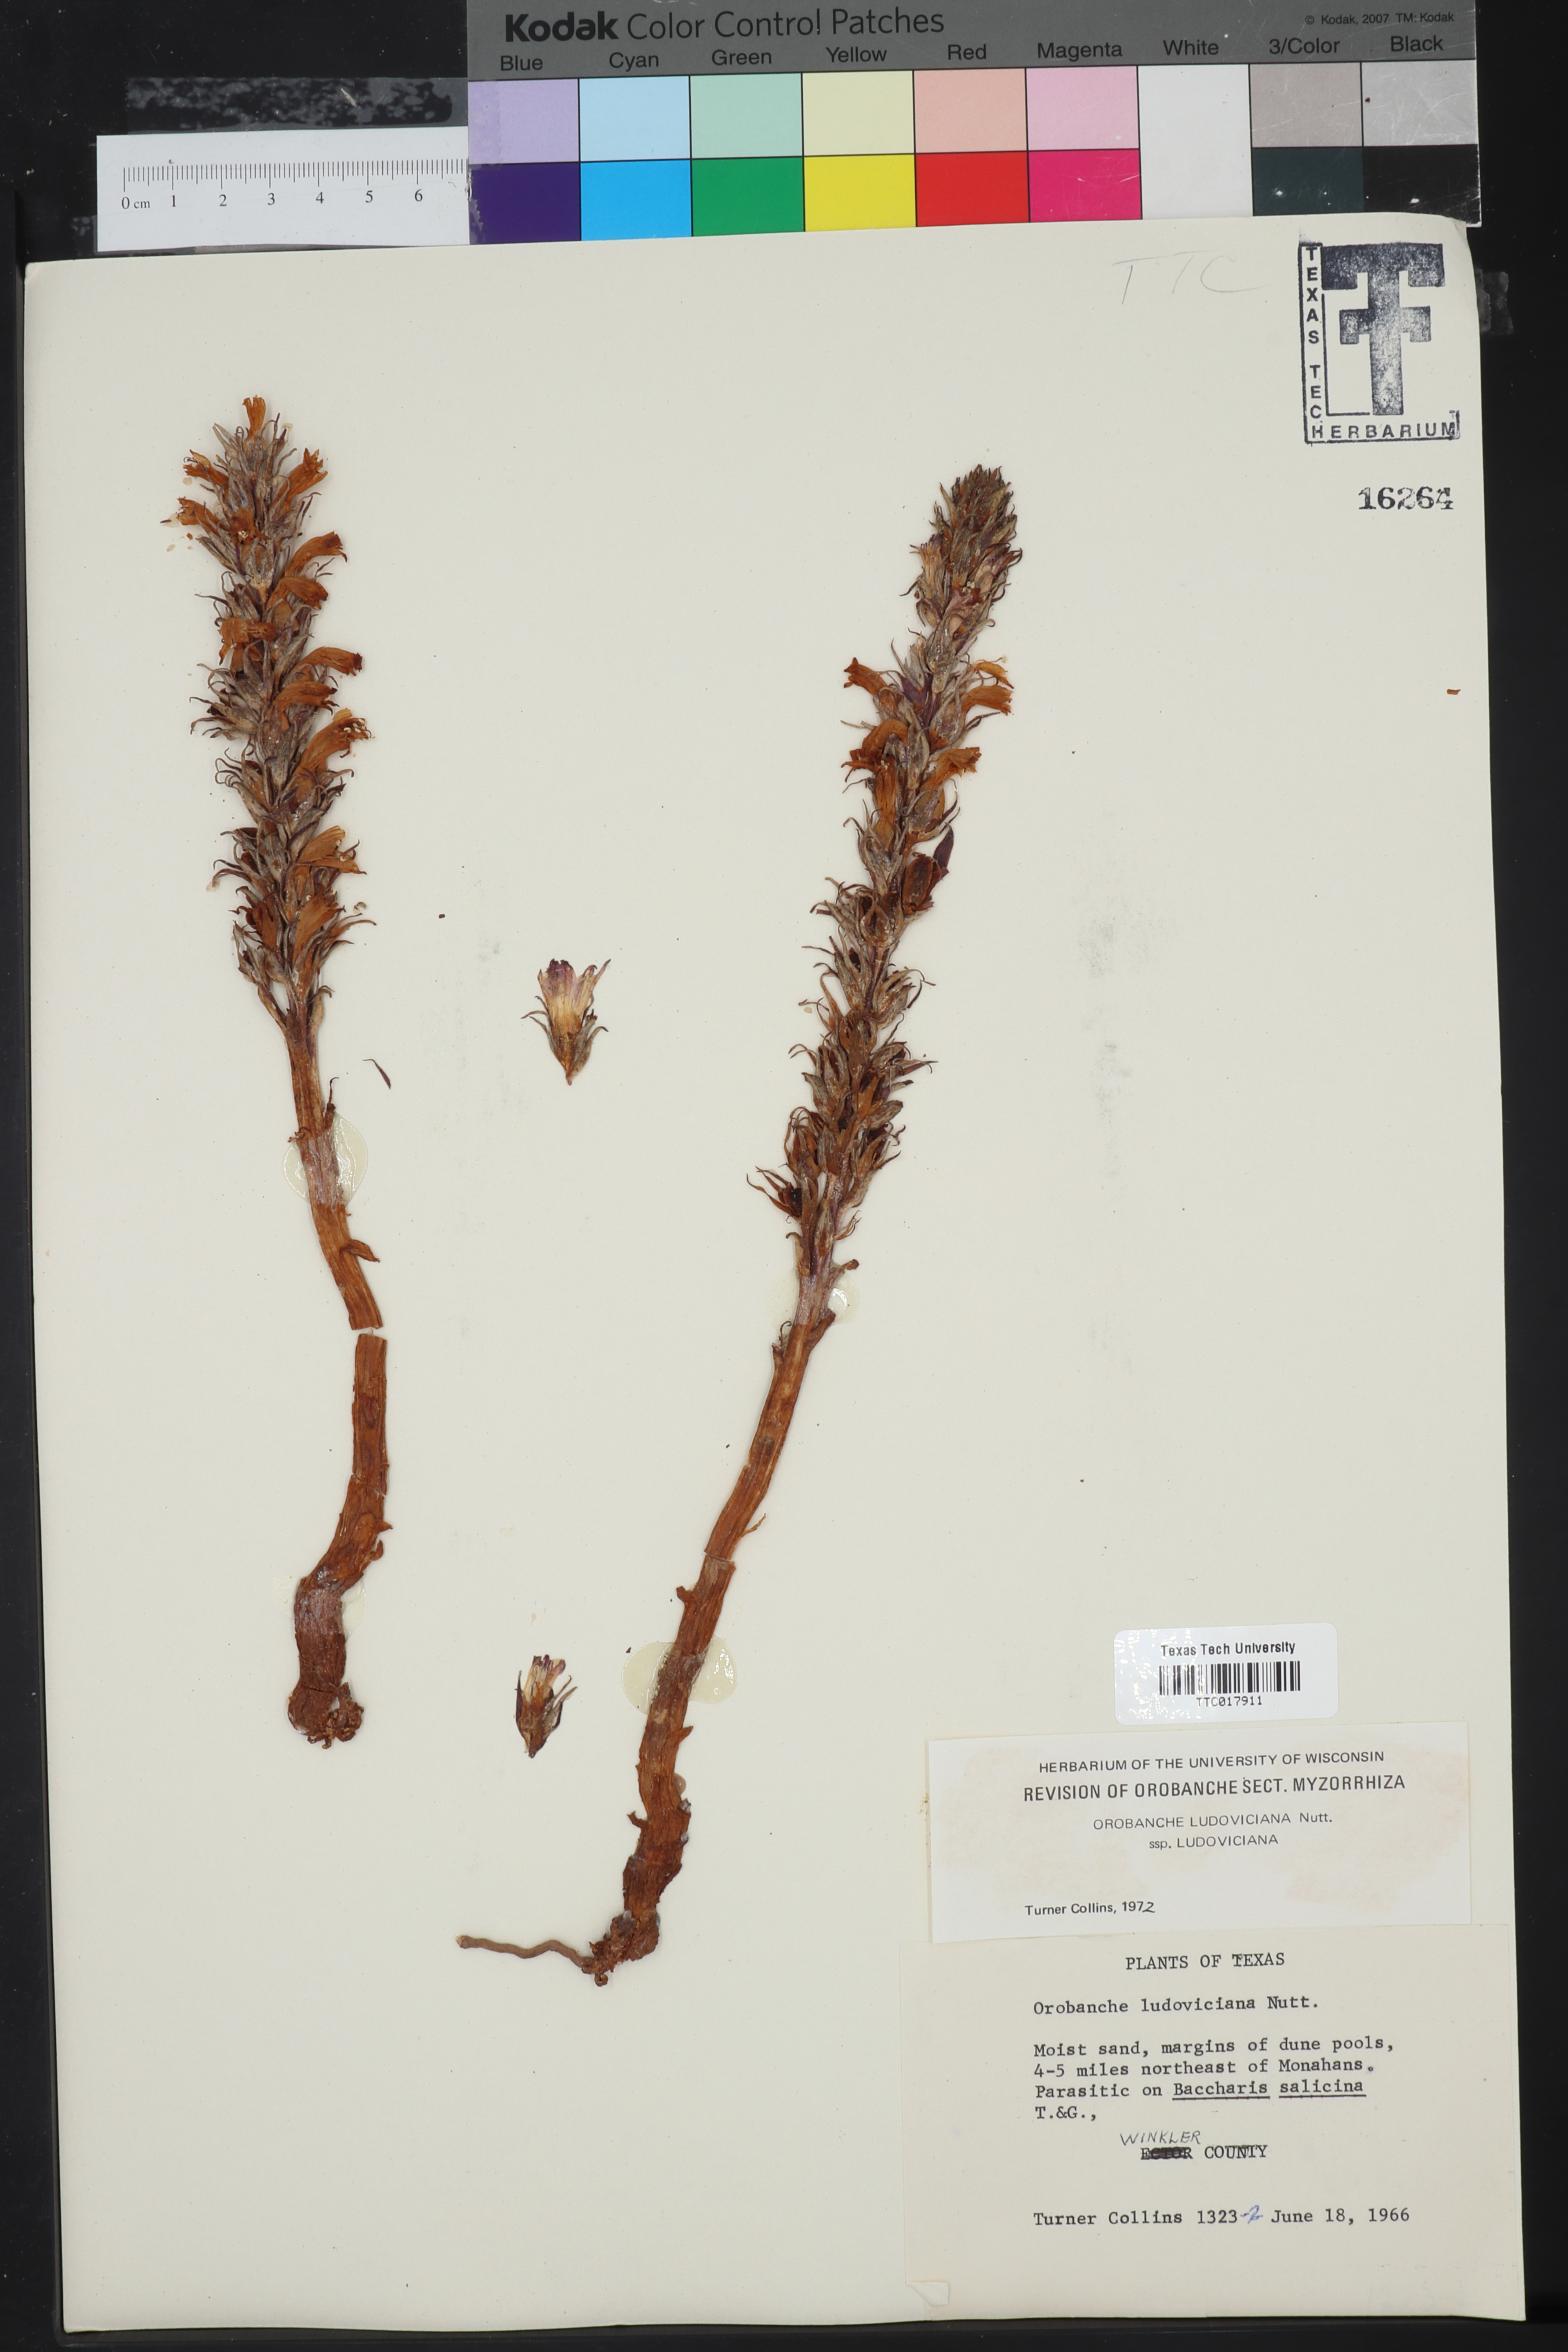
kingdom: Plantae
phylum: Tracheophyta
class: Magnoliopsida
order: Lamiales
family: Orobanchaceae
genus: Aphyllon
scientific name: Aphyllon ludovicianum
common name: Louisiana broomrape
